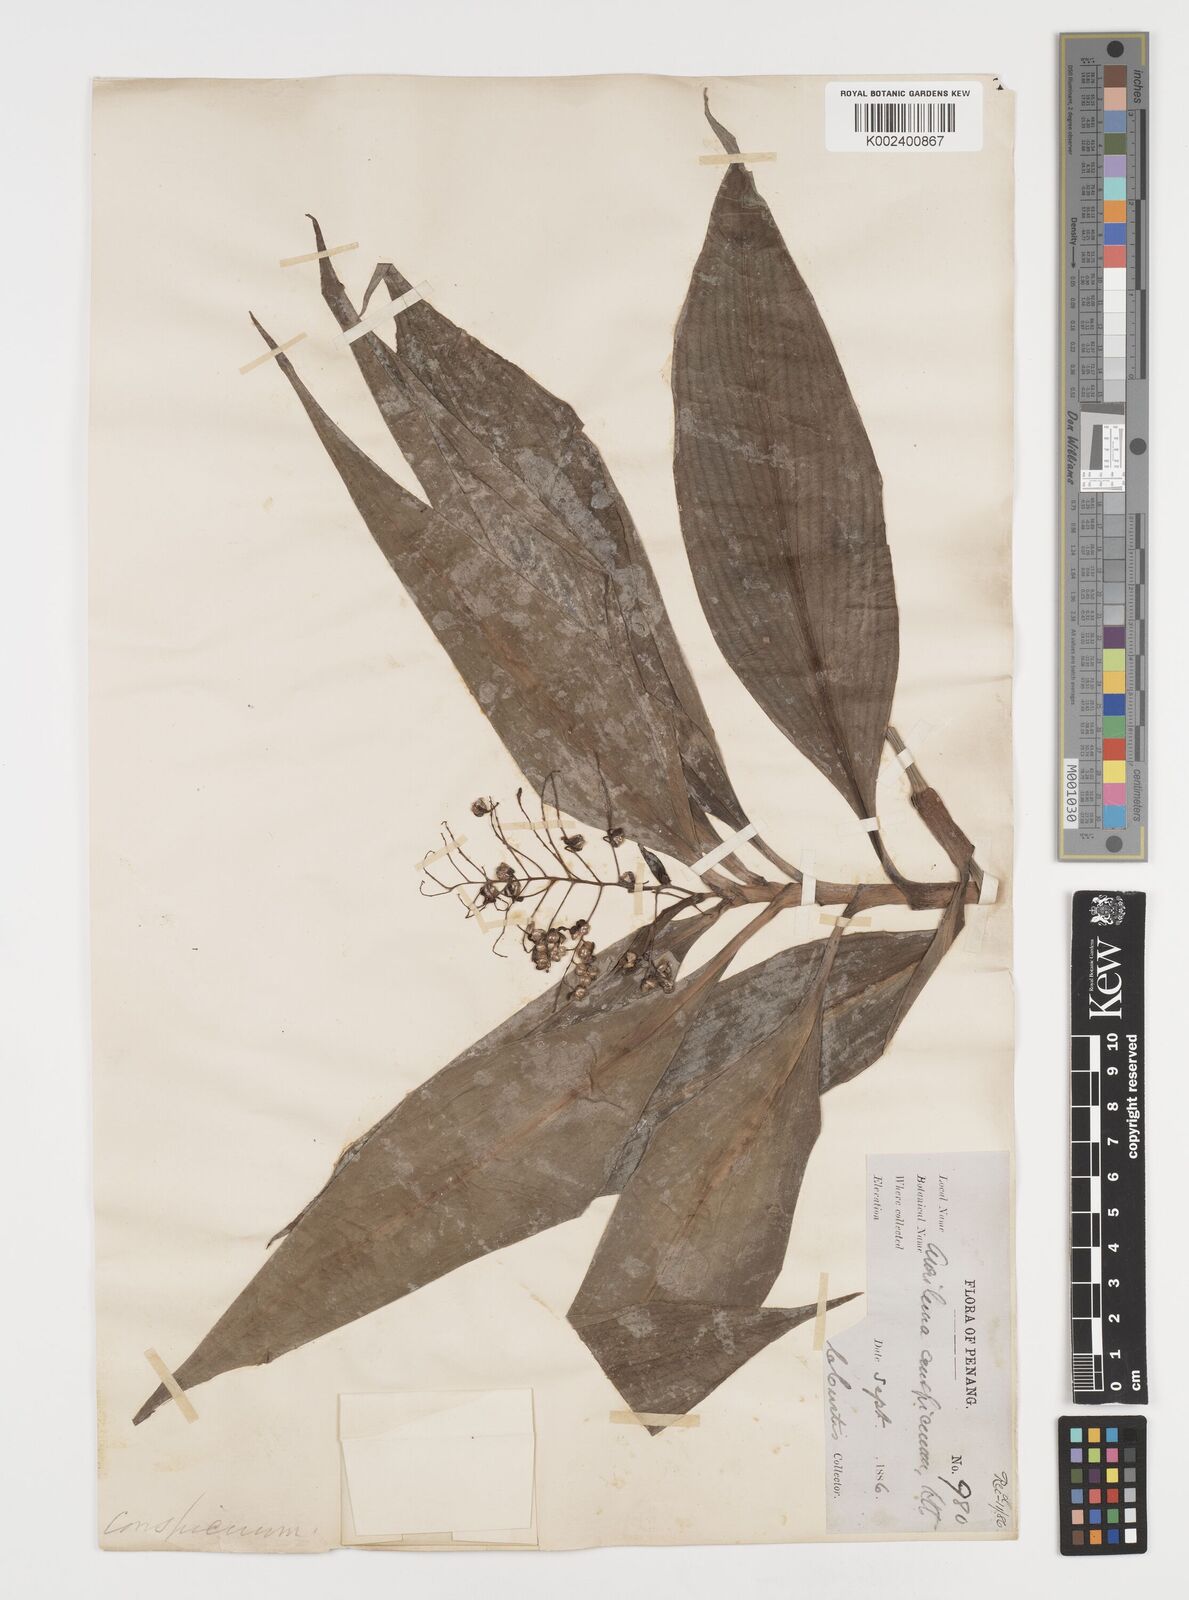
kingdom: Plantae
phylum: Tracheophyta
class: Liliopsida
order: Commelinales
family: Commelinaceae
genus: Dictyospermum
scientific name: Dictyospermum conspicuum
